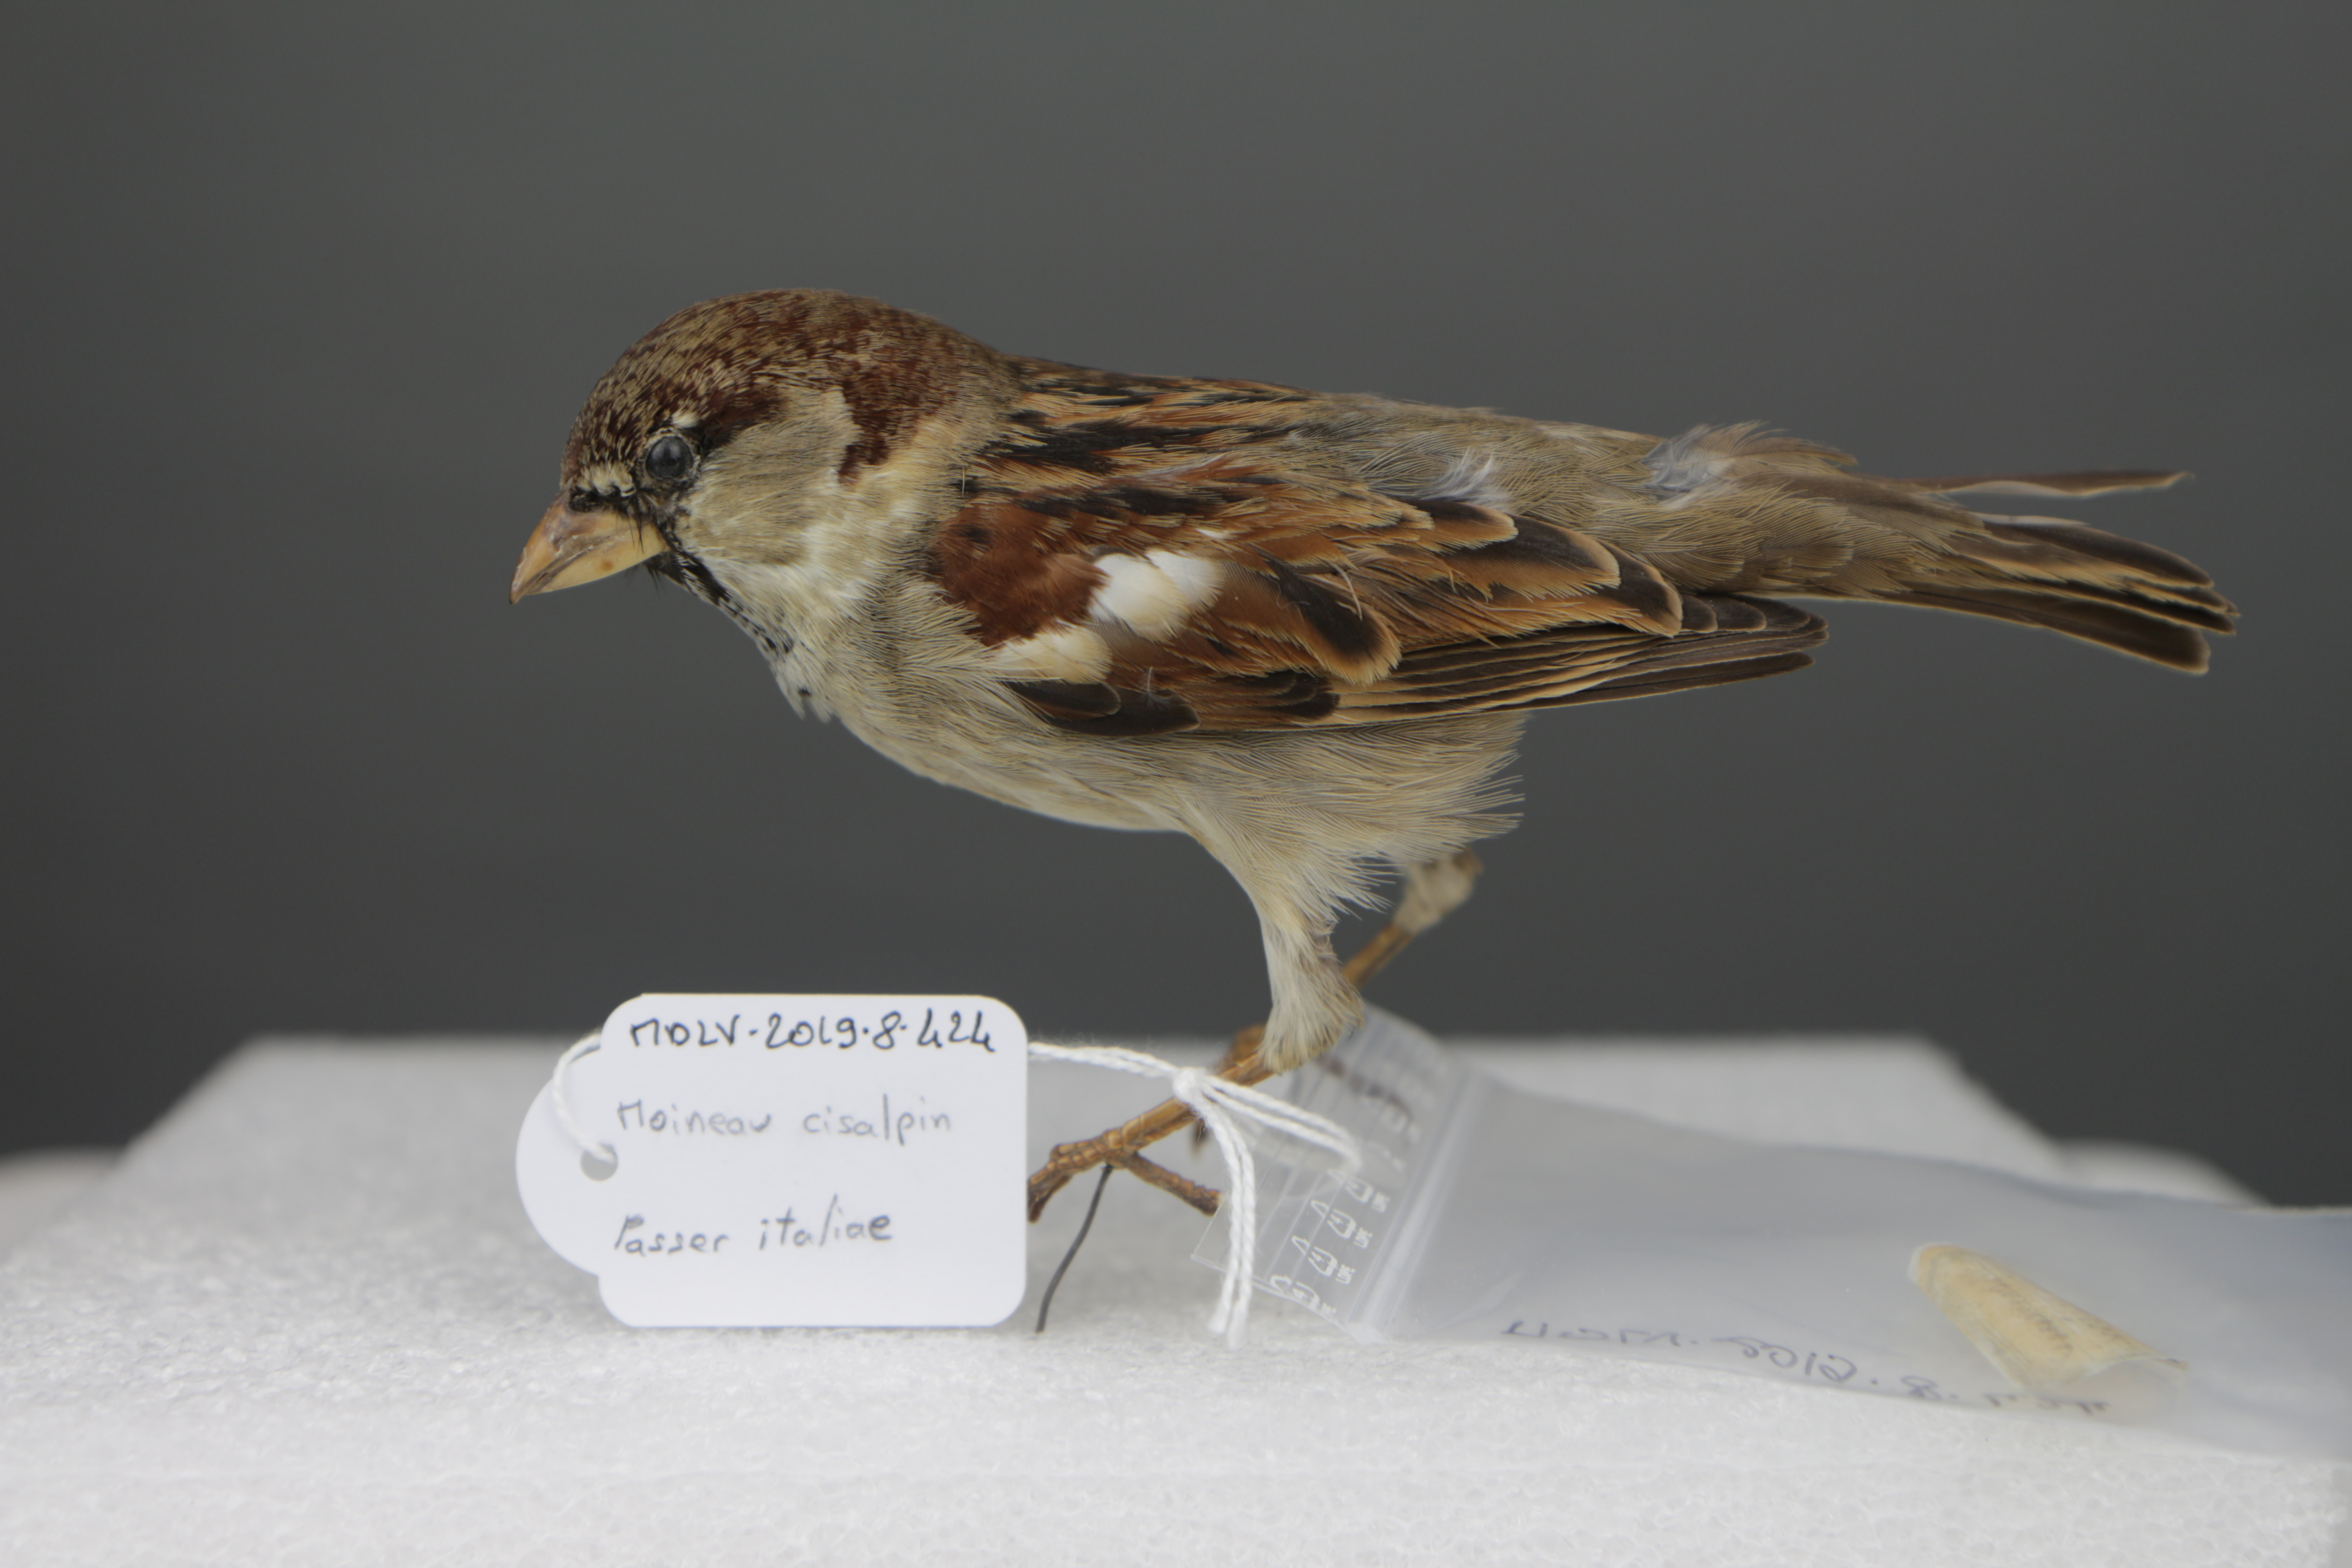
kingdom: Animalia
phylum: Chordata
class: Aves
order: Passeriformes
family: Passeridae
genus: Passer
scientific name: Passer italiae
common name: Italian sparrow
